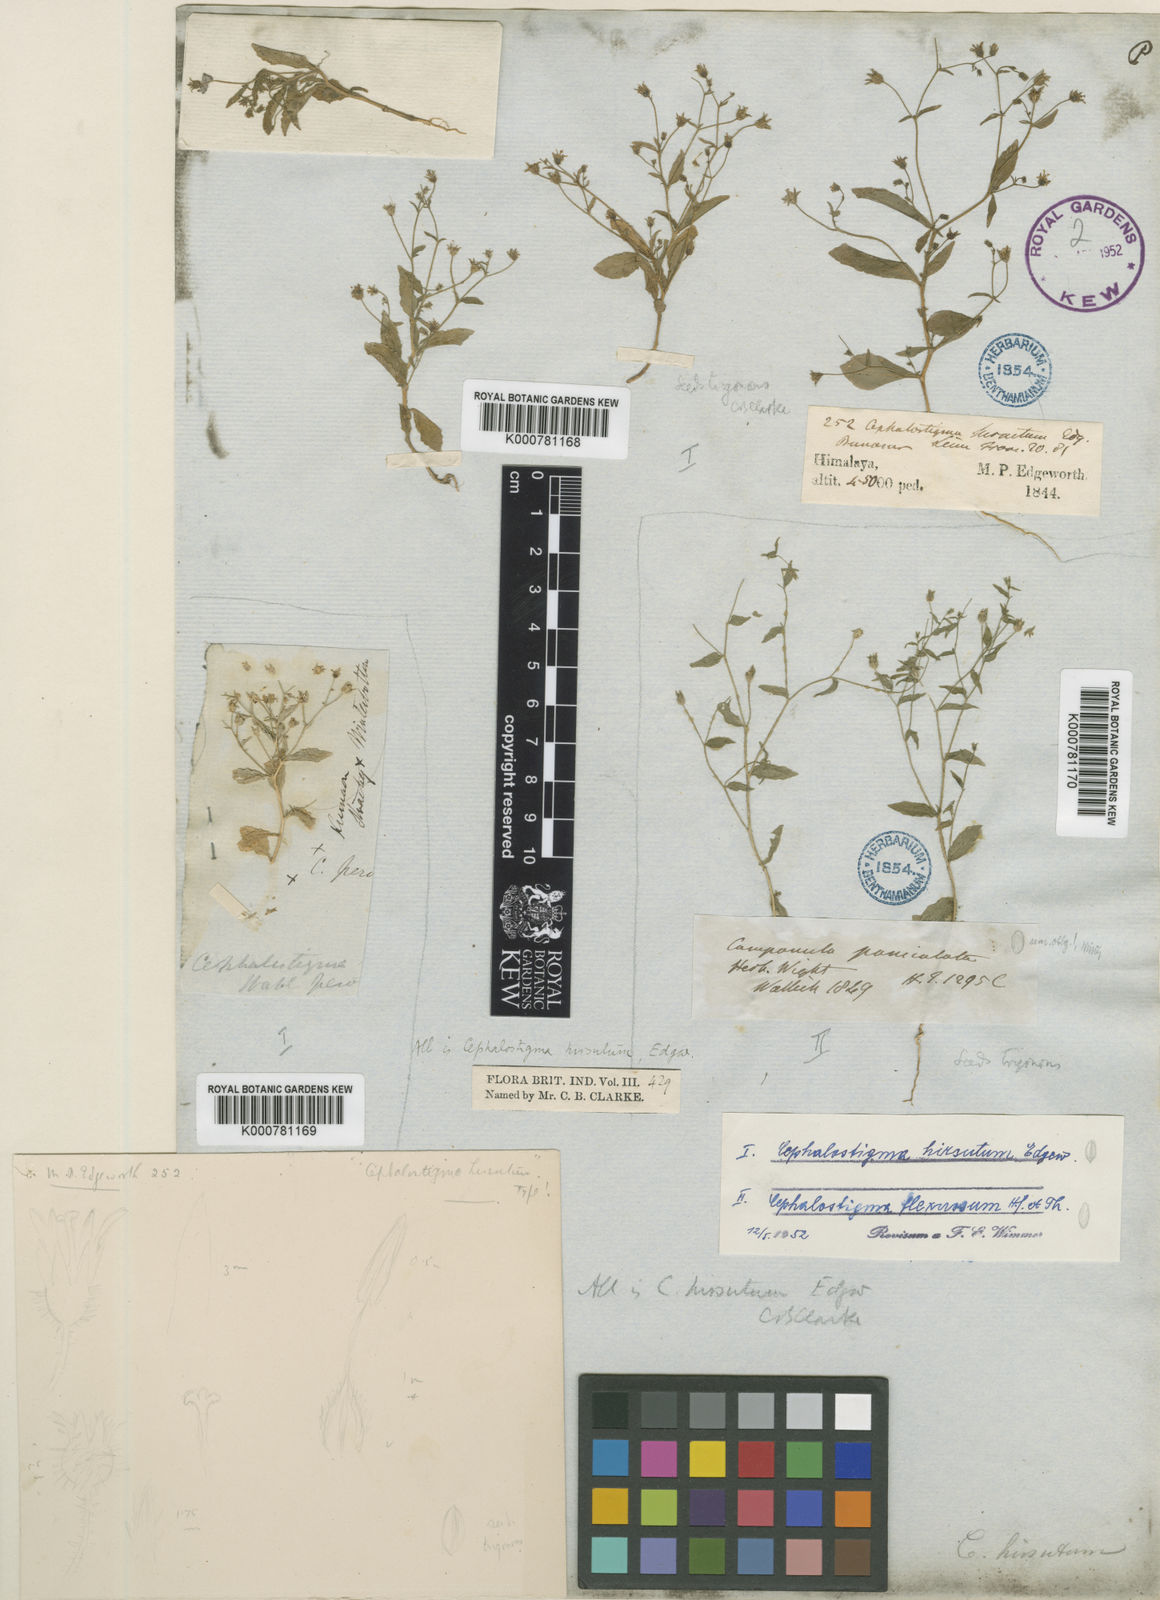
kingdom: Plantae
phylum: Tracheophyta
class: Magnoliopsida
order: Asterales
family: Campanulaceae
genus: Wahlenbergia
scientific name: Wahlenbergia hirsuta
